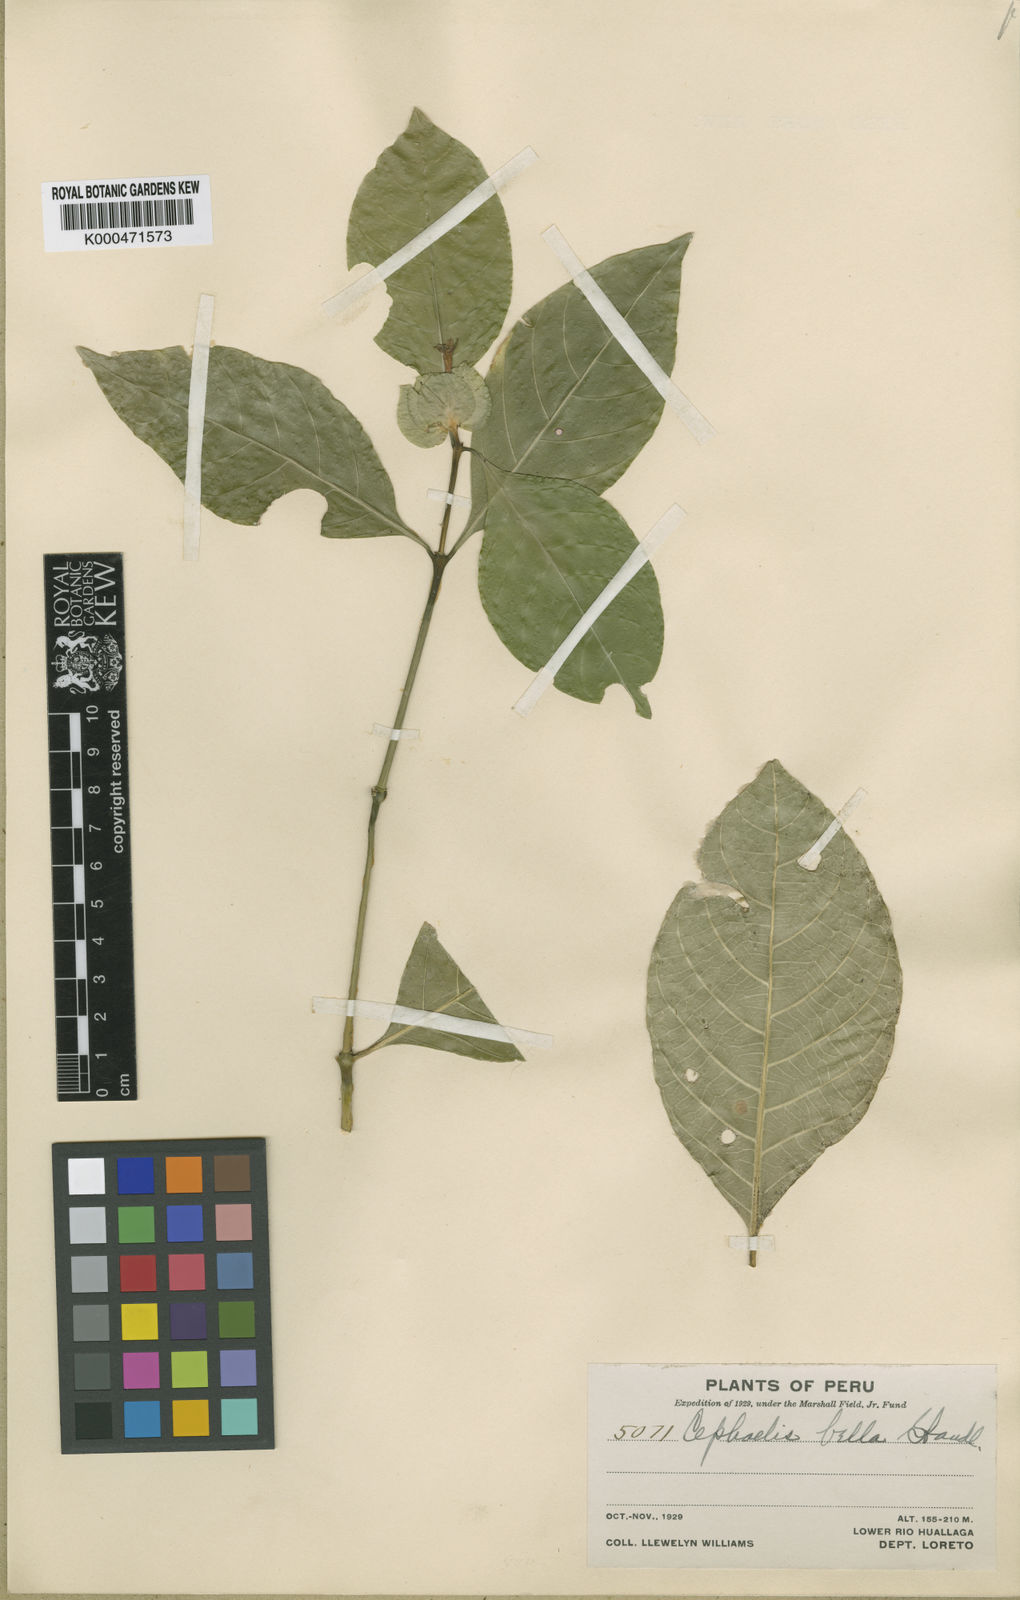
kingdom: Plantae
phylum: Tracheophyta
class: Magnoliopsida
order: Gentianales
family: Rubiaceae
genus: Palicourea
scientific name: Palicourea bella
